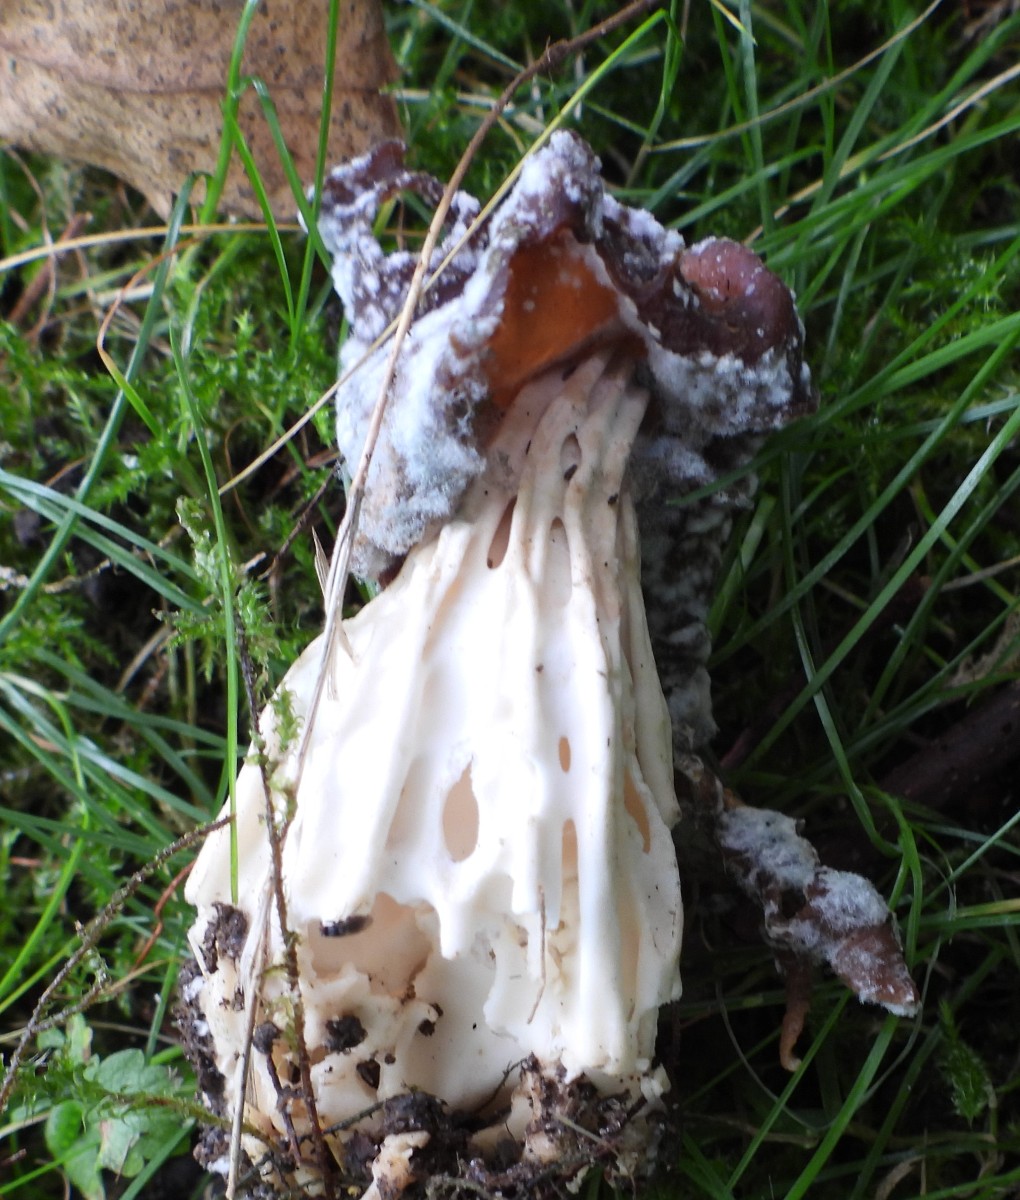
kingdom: Fungi
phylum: Ascomycota
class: Pezizomycetes
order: Pezizales
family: Helvellaceae
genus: Helvella
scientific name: Helvella crispa
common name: kruset foldhat
